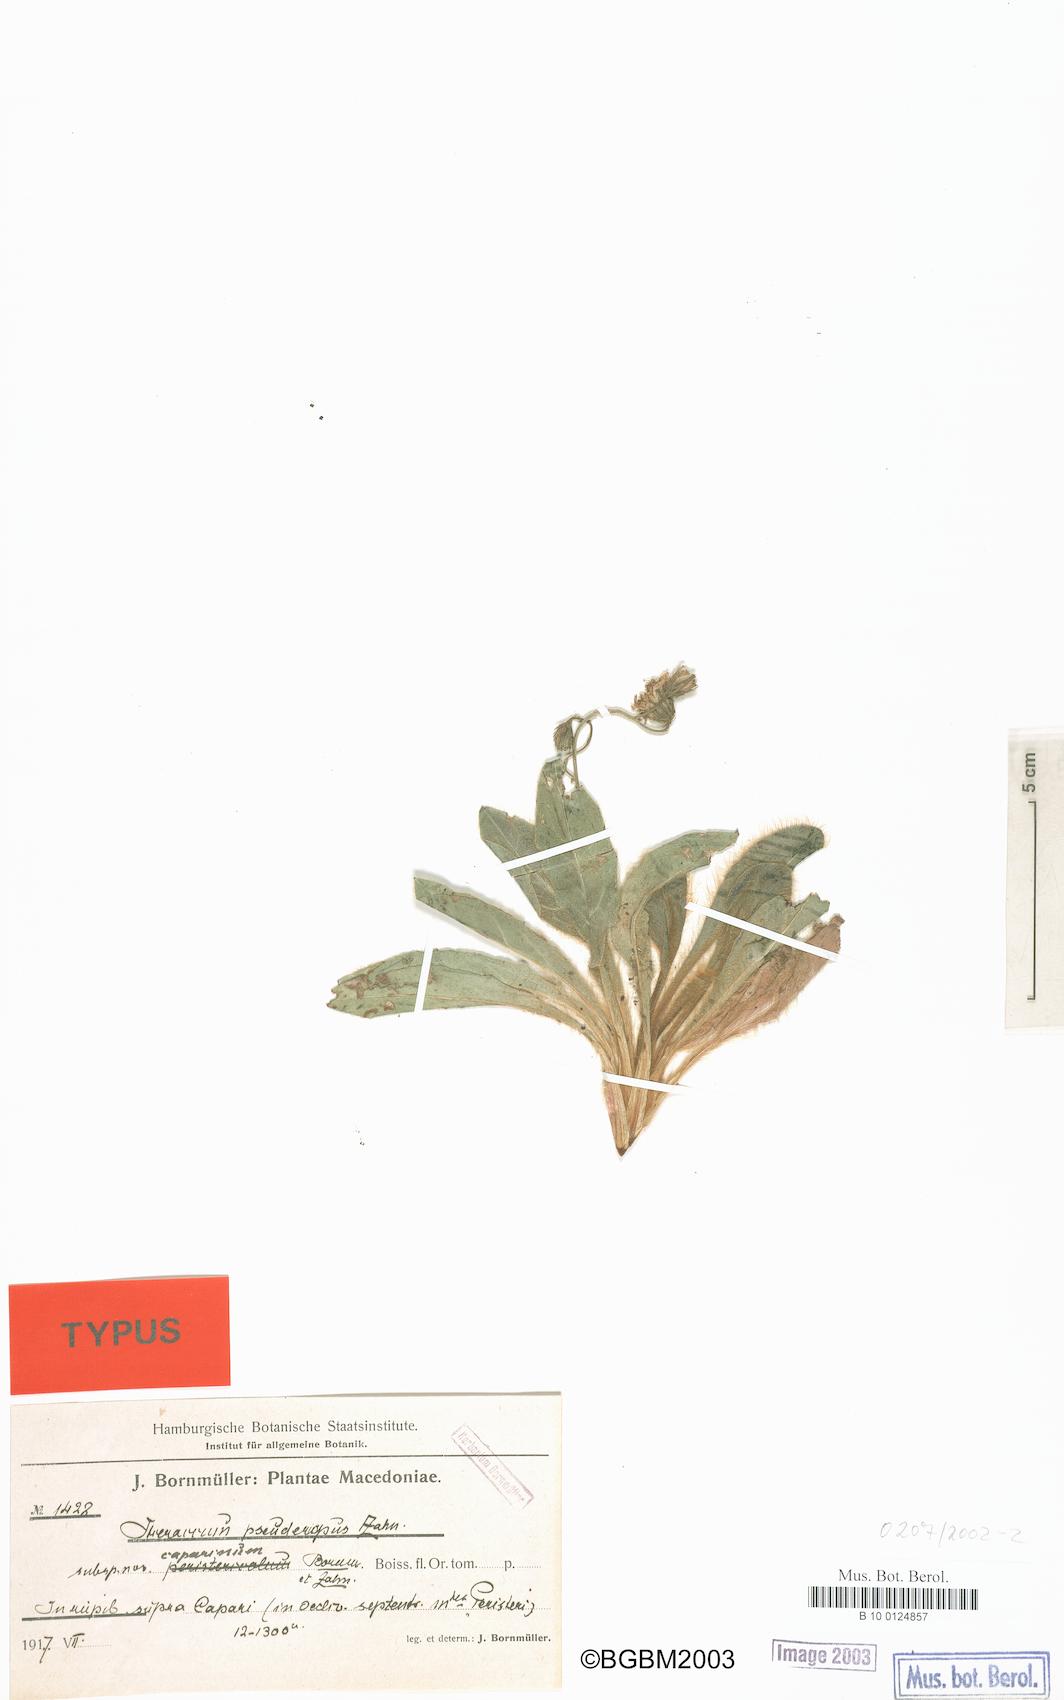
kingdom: Plantae
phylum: Tracheophyta
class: Magnoliopsida
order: Asterales
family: Asteraceae
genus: Hieracium
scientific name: Hieracium klisurae
